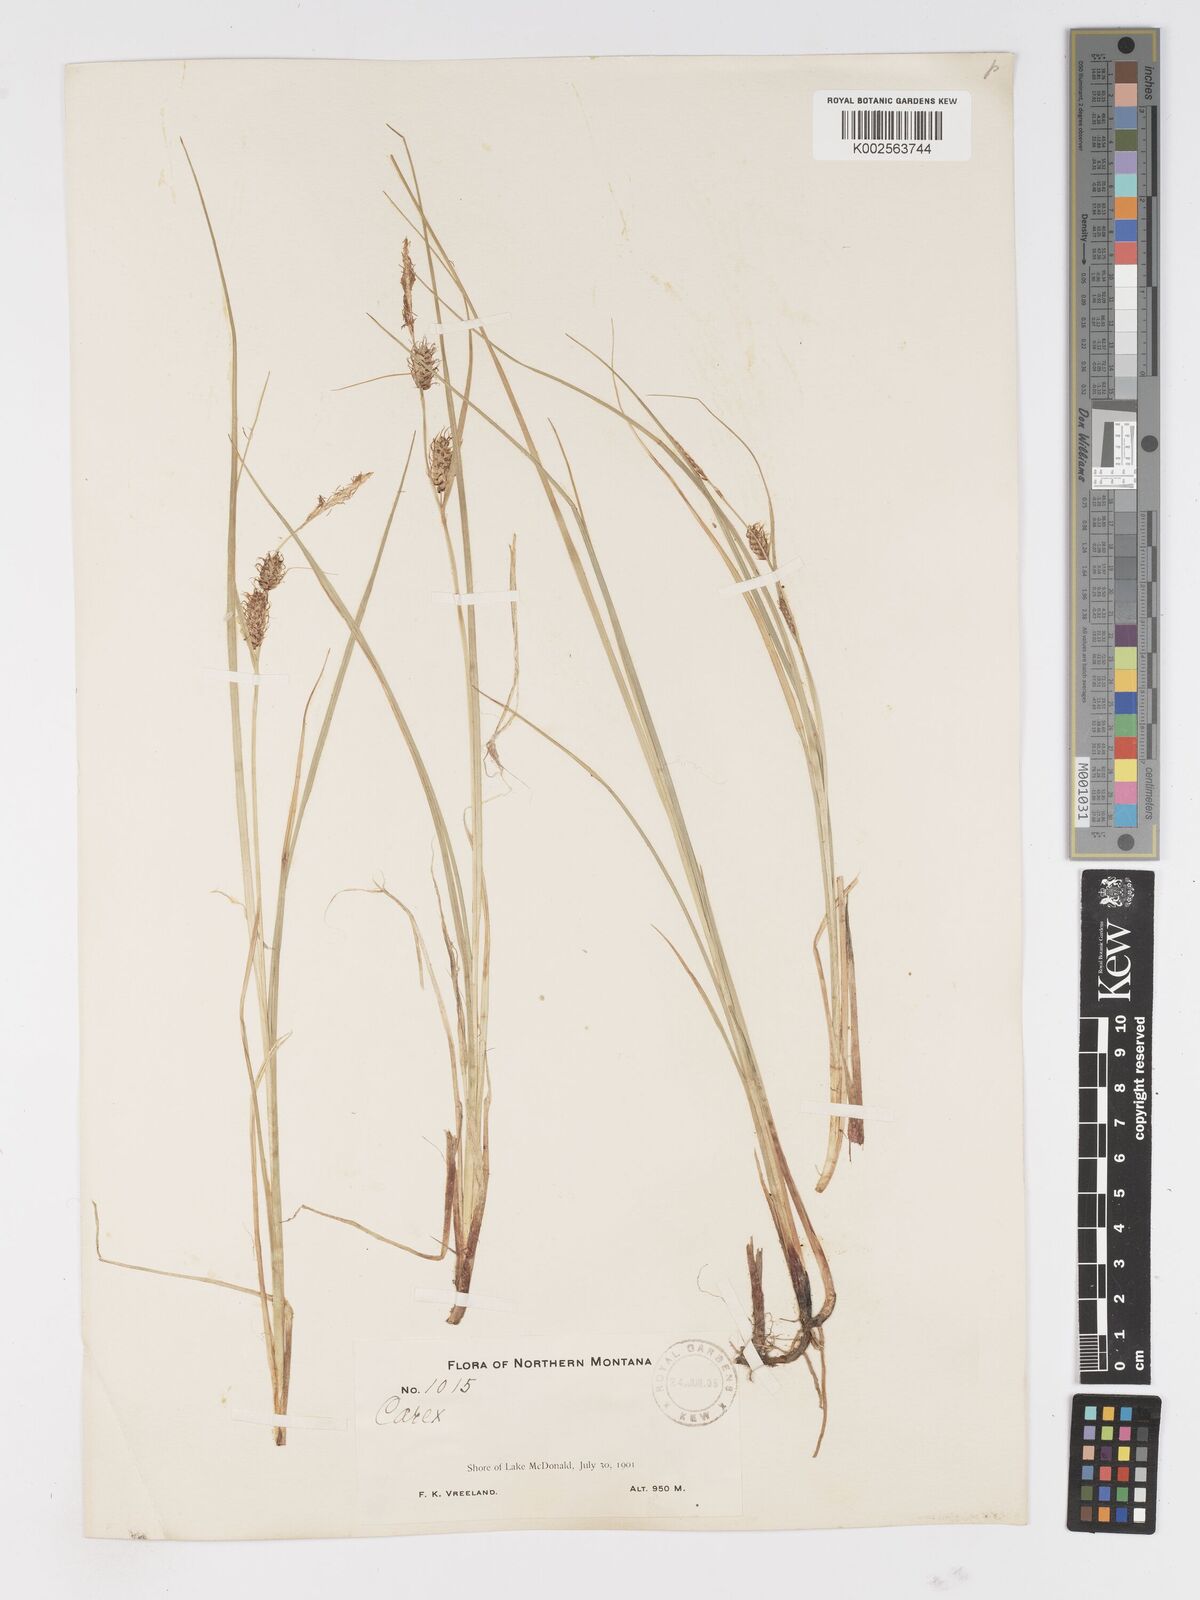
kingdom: Plantae
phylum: Tracheophyta
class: Liliopsida
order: Poales
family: Cyperaceae
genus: Carex
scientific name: Carex vesicaria
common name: Bladder-sedge
